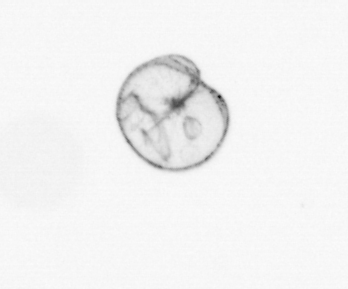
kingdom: Chromista
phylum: Myzozoa
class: Dinophyceae
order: Noctilucales
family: Noctilucaceae
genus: Noctiluca
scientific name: Noctiluca scintillans
